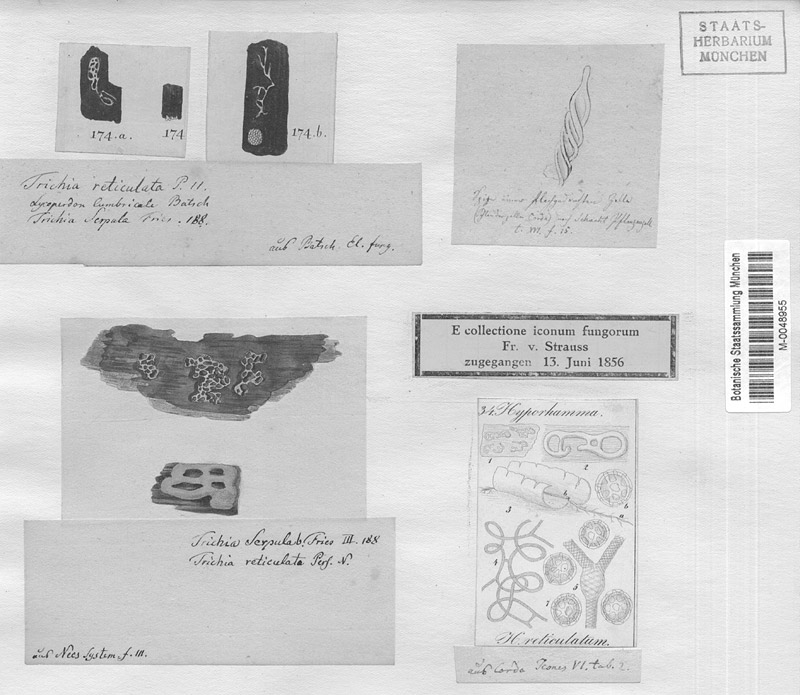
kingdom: Protozoa
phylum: Mycetozoa
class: Myxomycetes
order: Trichiales
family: Arcyriaceae
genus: Hemitrichia
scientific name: Hemitrichia serpula
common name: Pretzel slime mold
